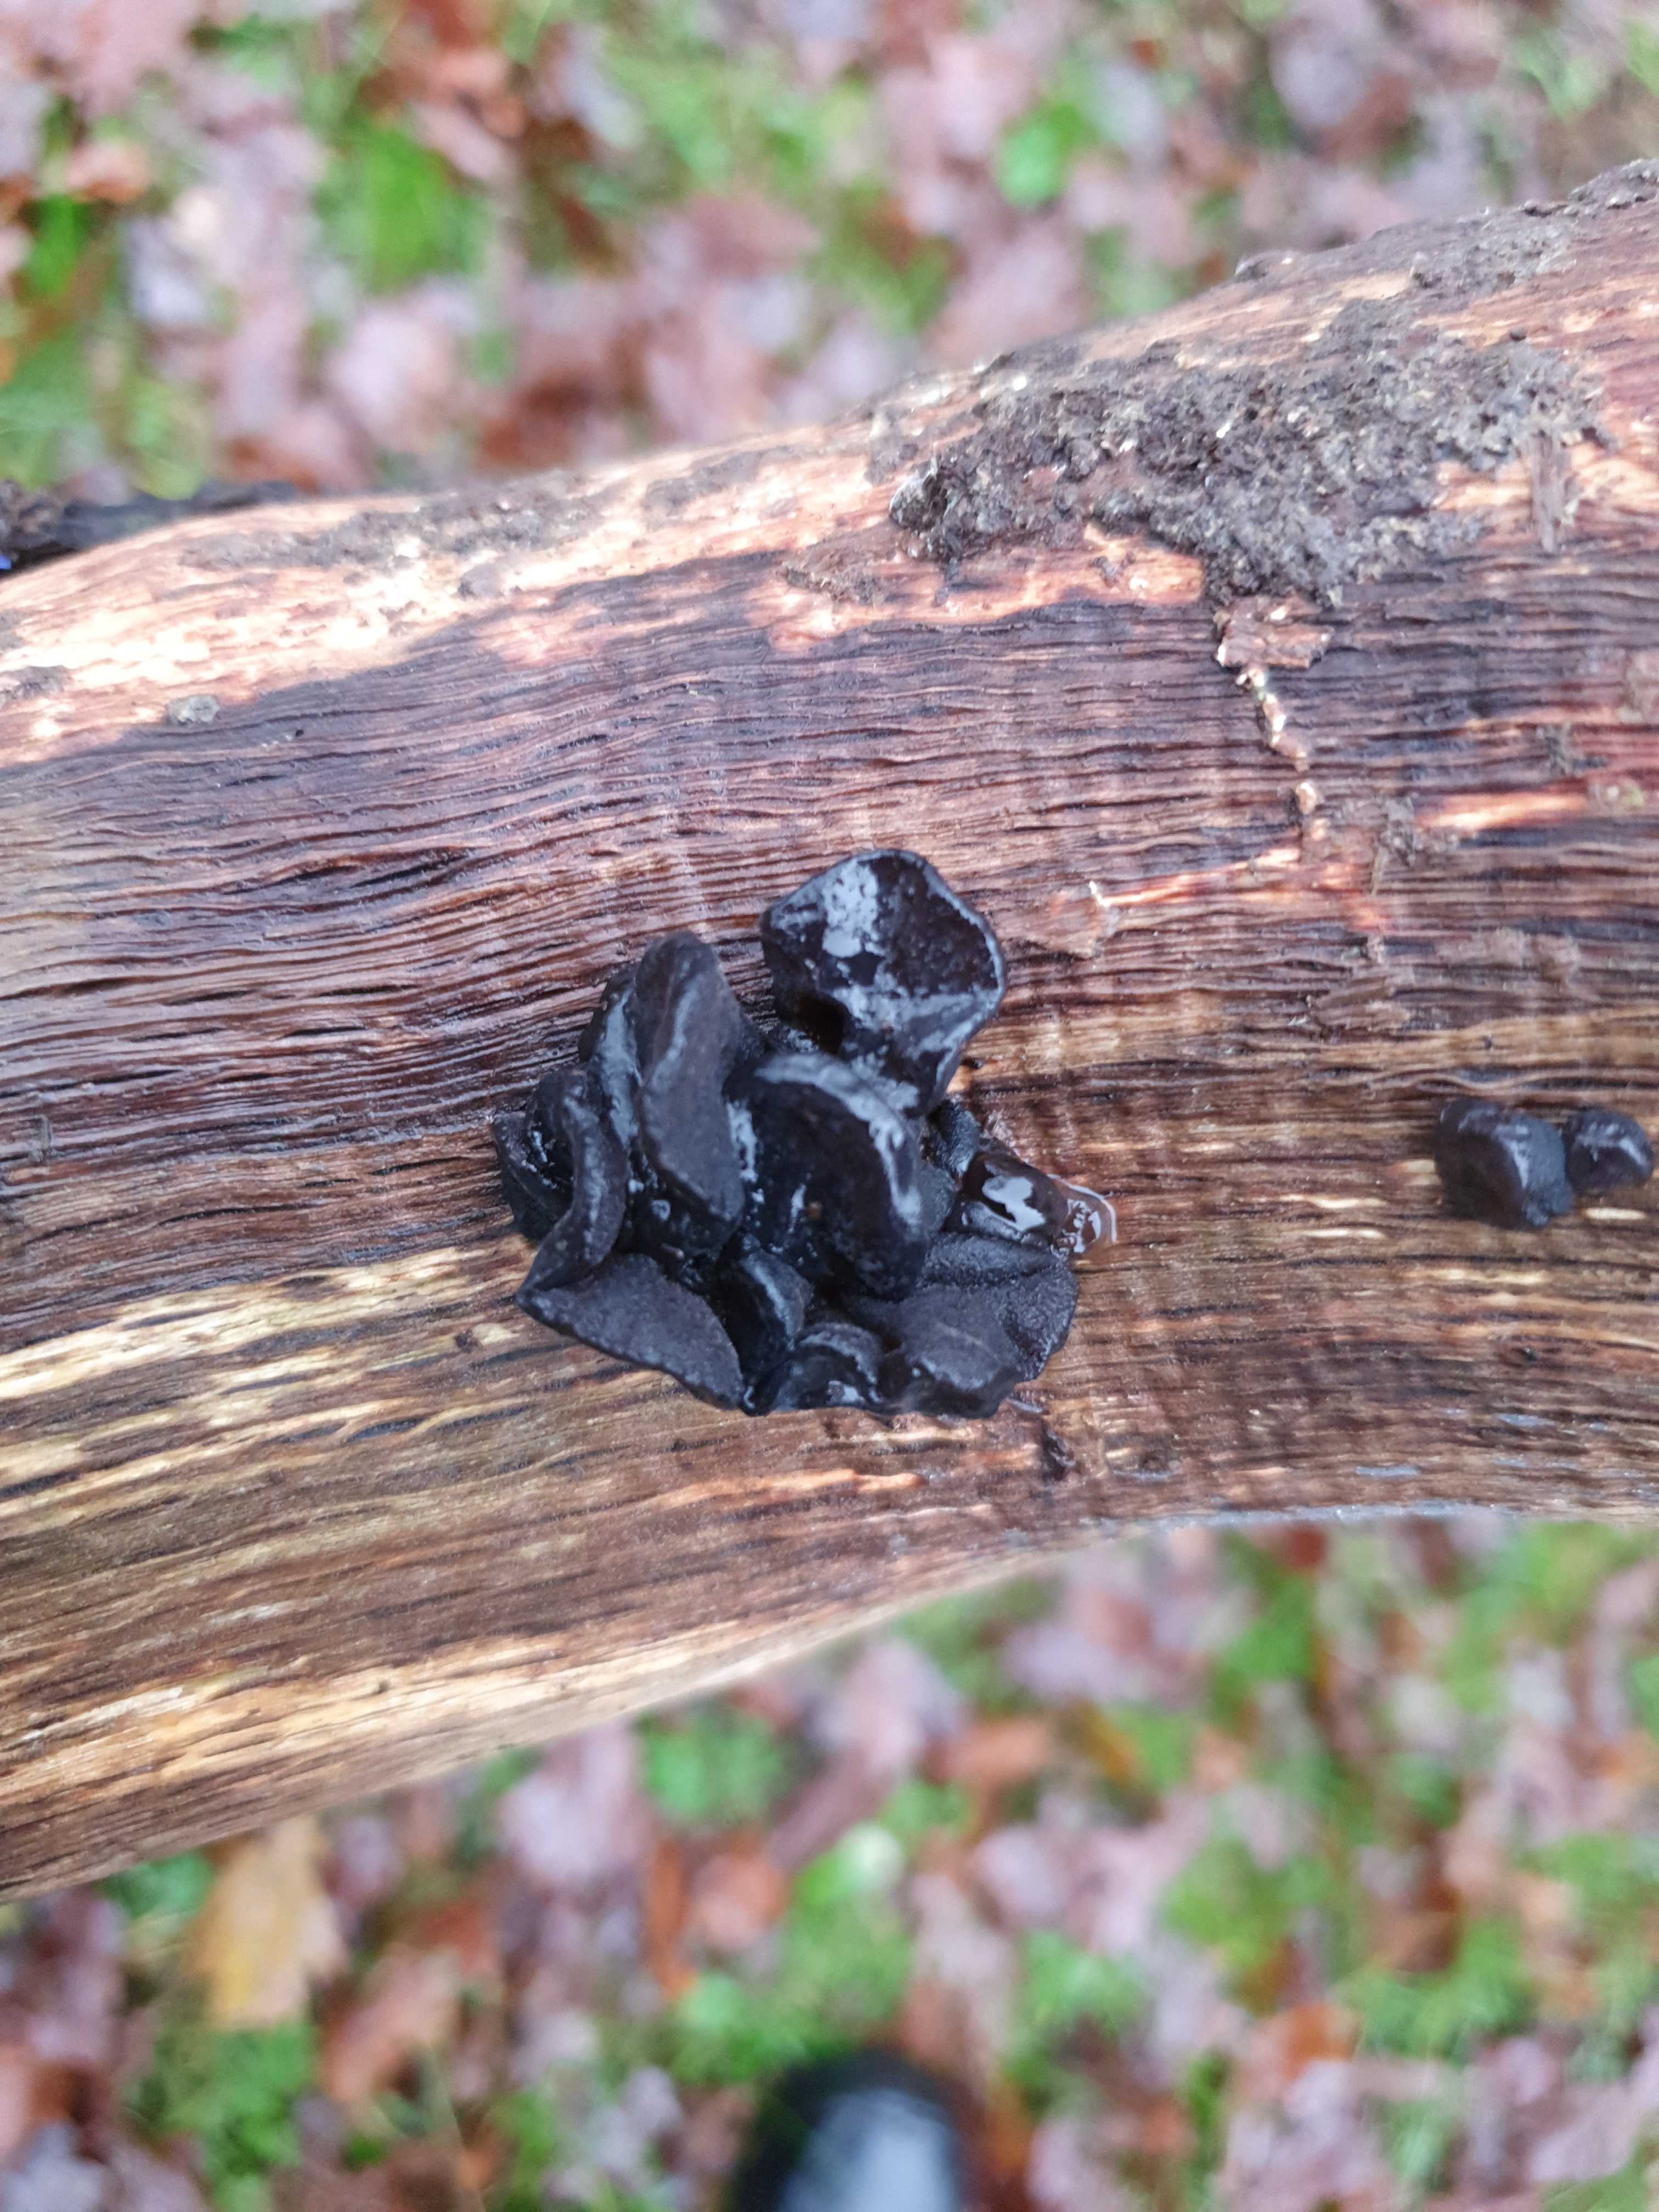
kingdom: Fungi
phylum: Basidiomycota
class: Agaricomycetes
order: Auriculariales
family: Auriculariaceae
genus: Exidia
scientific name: Exidia glandulosa
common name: ege-bævretop
